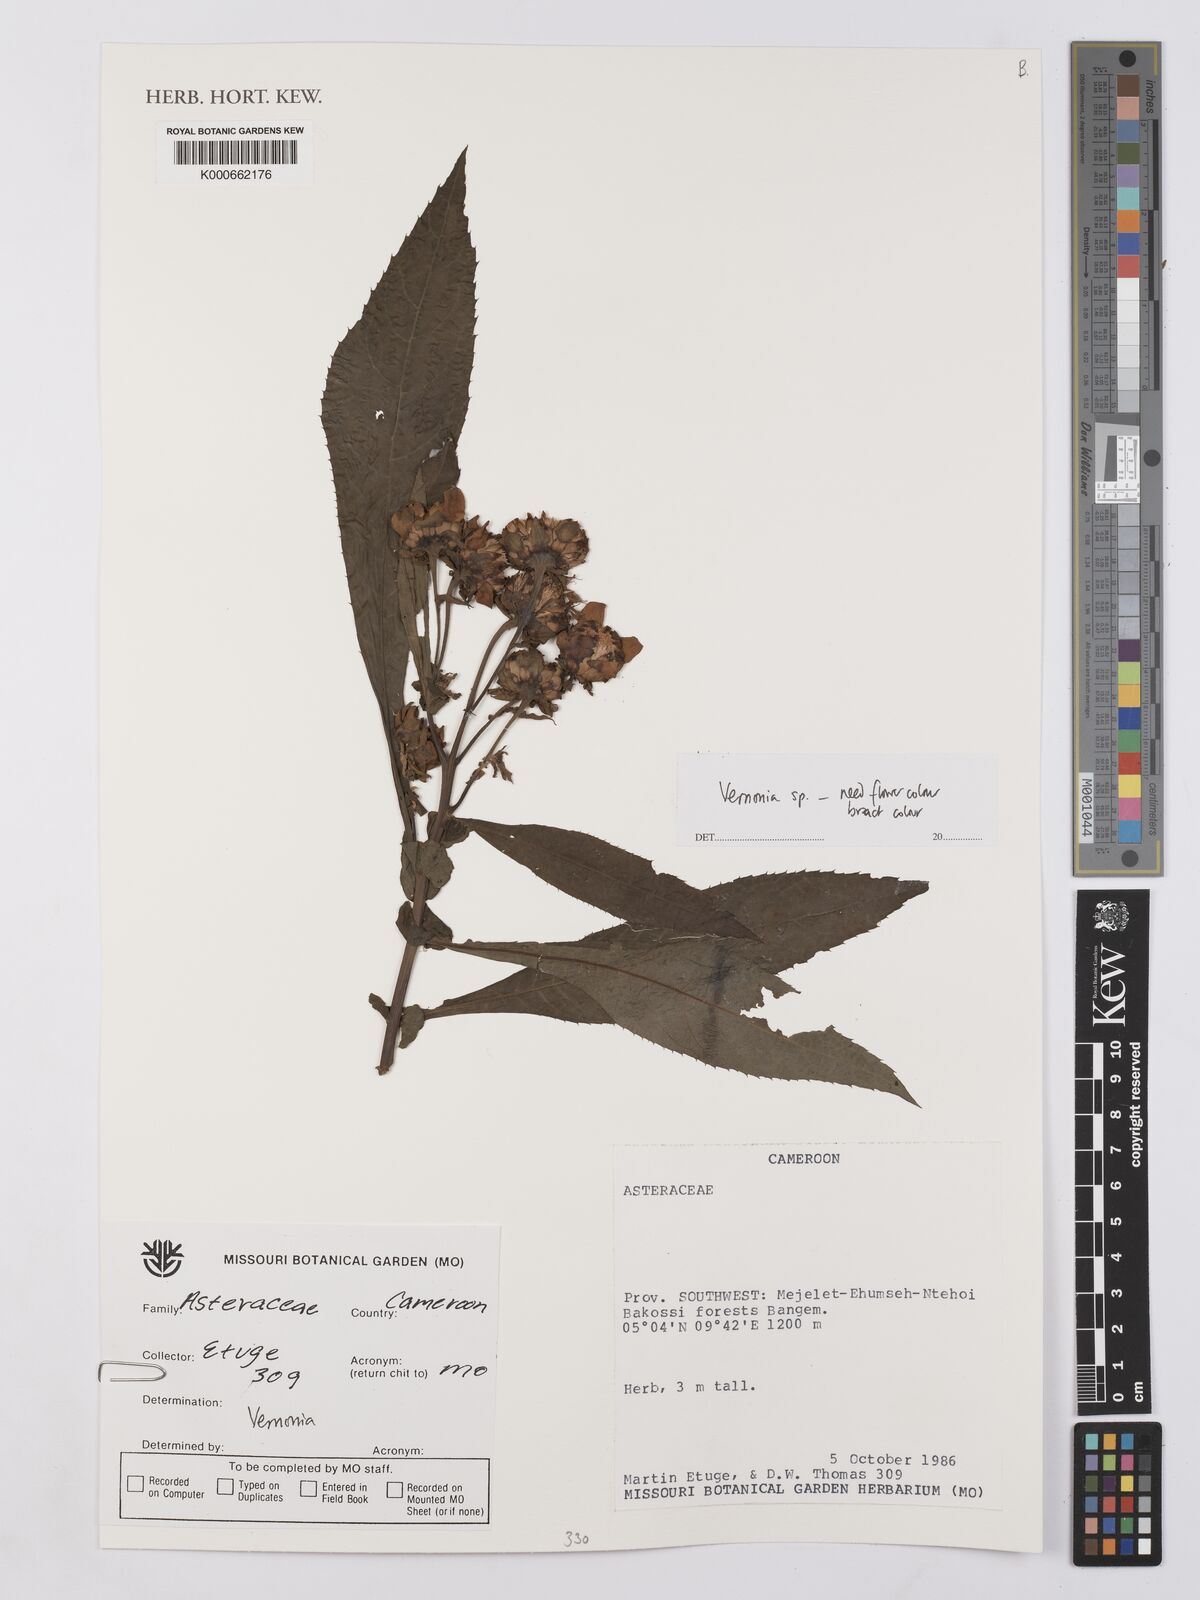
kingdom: Plantae
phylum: Tracheophyta
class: Magnoliopsida
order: Asterales
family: Asteraceae
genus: Vernonia
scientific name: Vernonia
